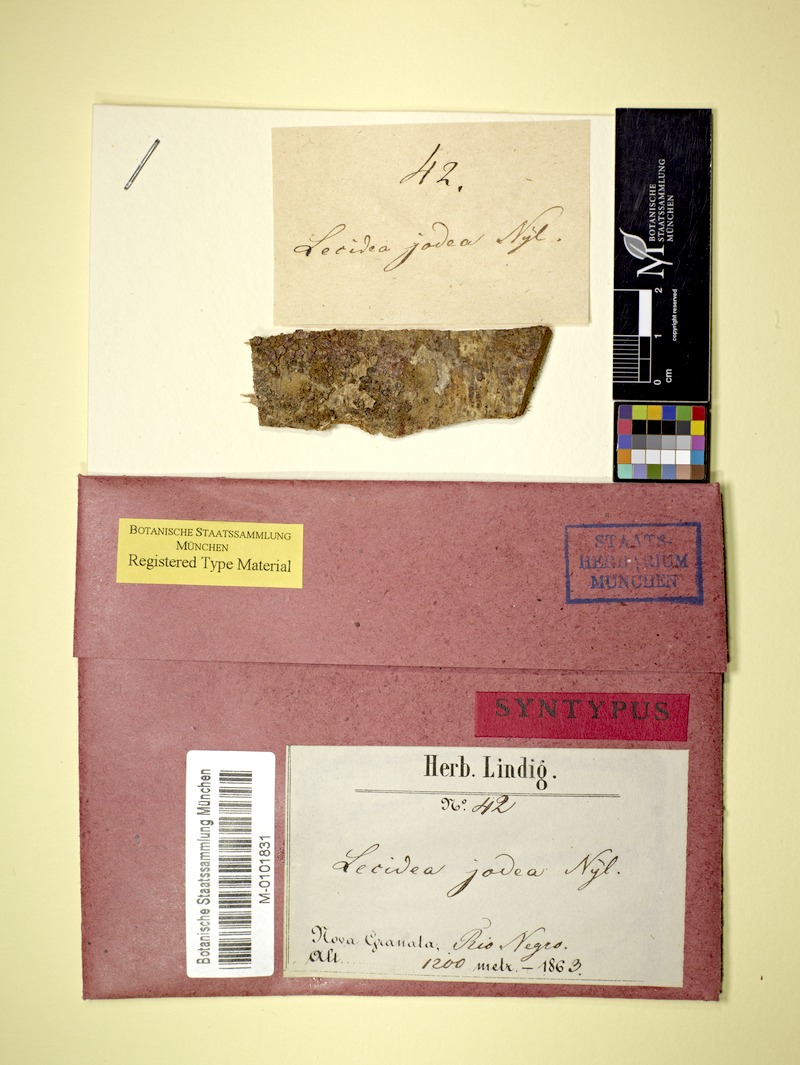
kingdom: Fungi
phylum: Ascomycota
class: Lecanoromycetes
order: Lecanorales
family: Ramalinaceae
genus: Bacidia
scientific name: Bacidia iodea
